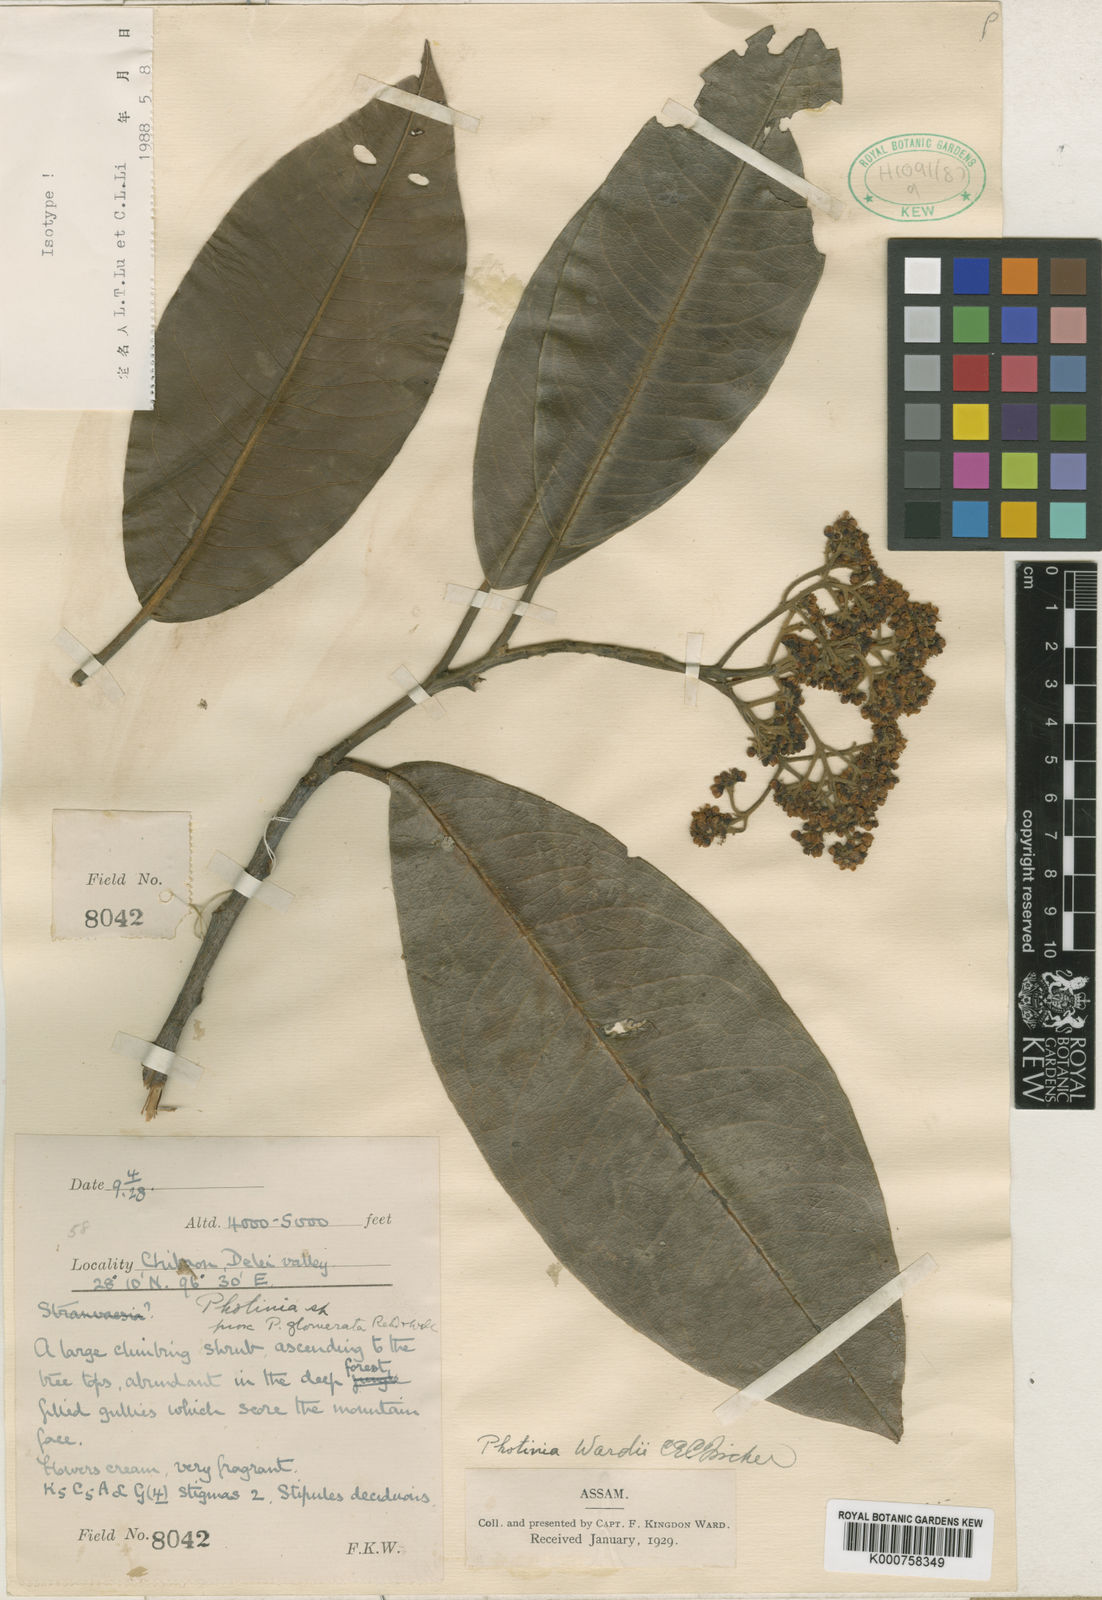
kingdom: Plantae
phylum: Tracheophyta
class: Magnoliopsida
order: Rosales
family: Rosaceae
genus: Photinia
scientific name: Photinia integrifolia
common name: Himalayan chokeberry
